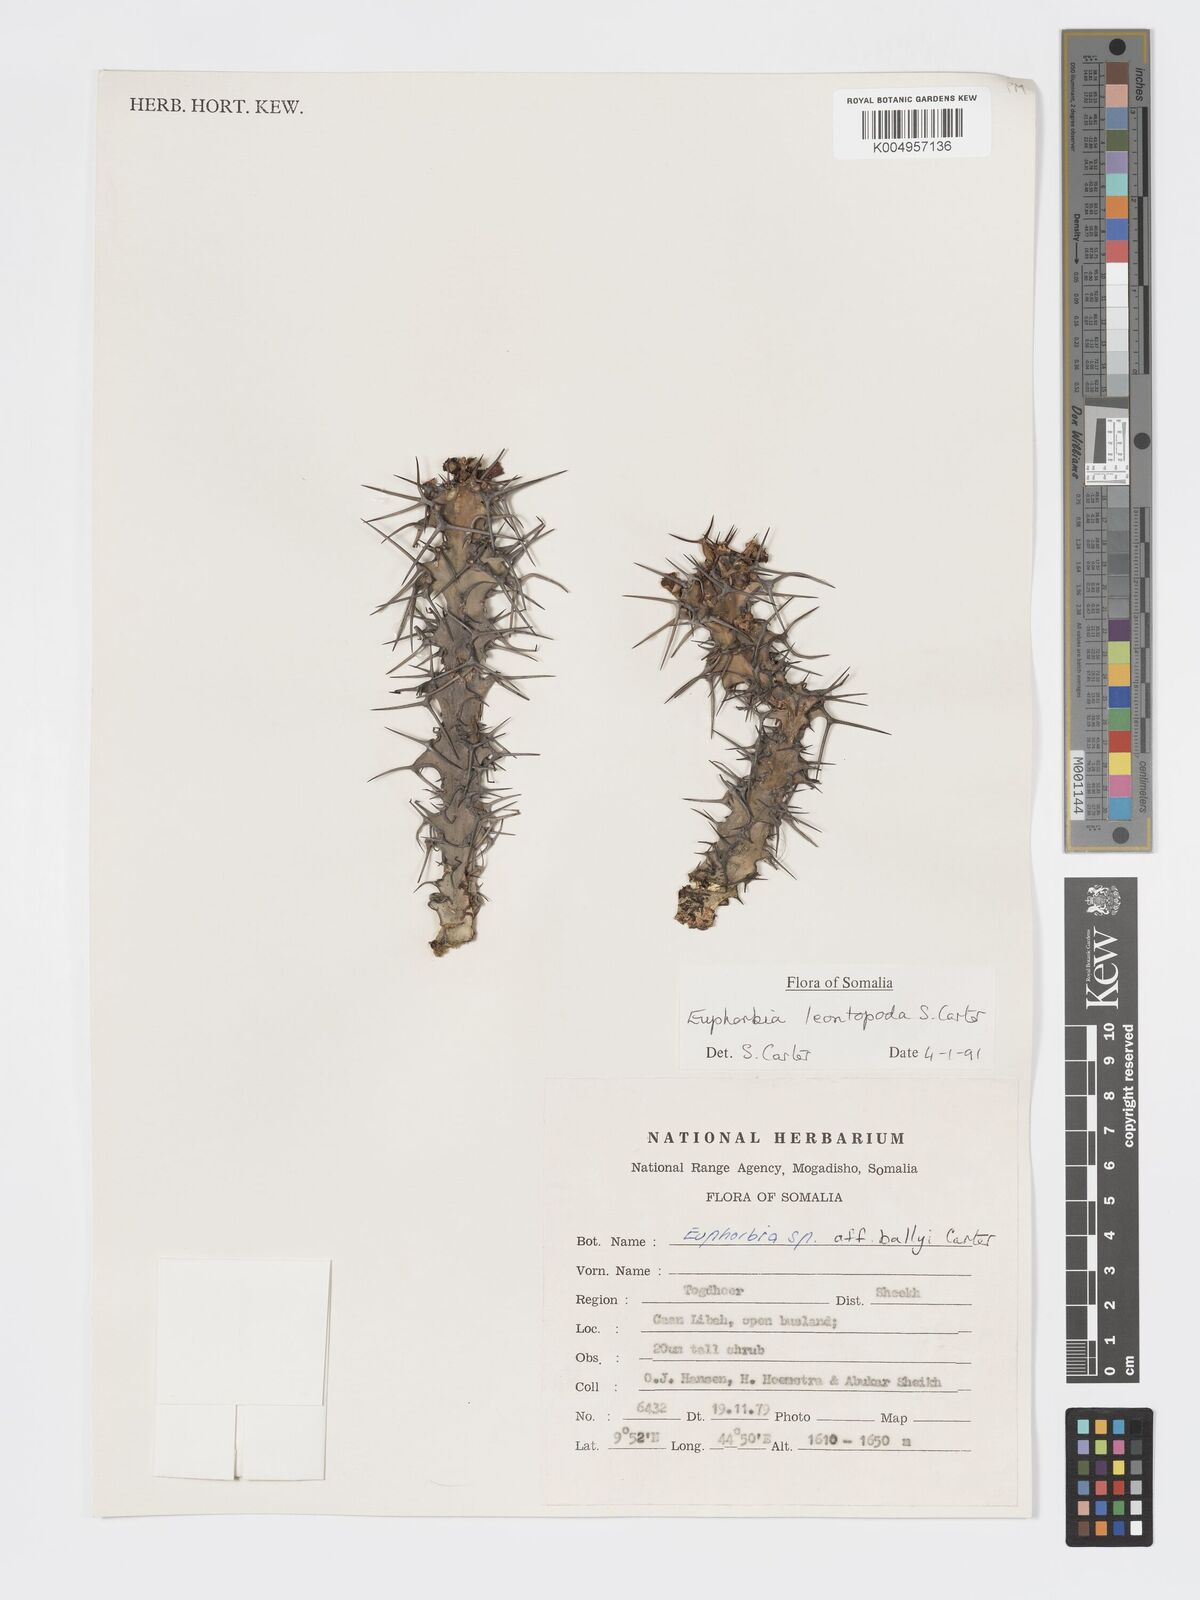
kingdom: Plantae
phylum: Tracheophyta
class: Magnoliopsida
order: Malpighiales
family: Euphorbiaceae
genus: Euphorbia
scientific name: Euphorbia leontopoda
